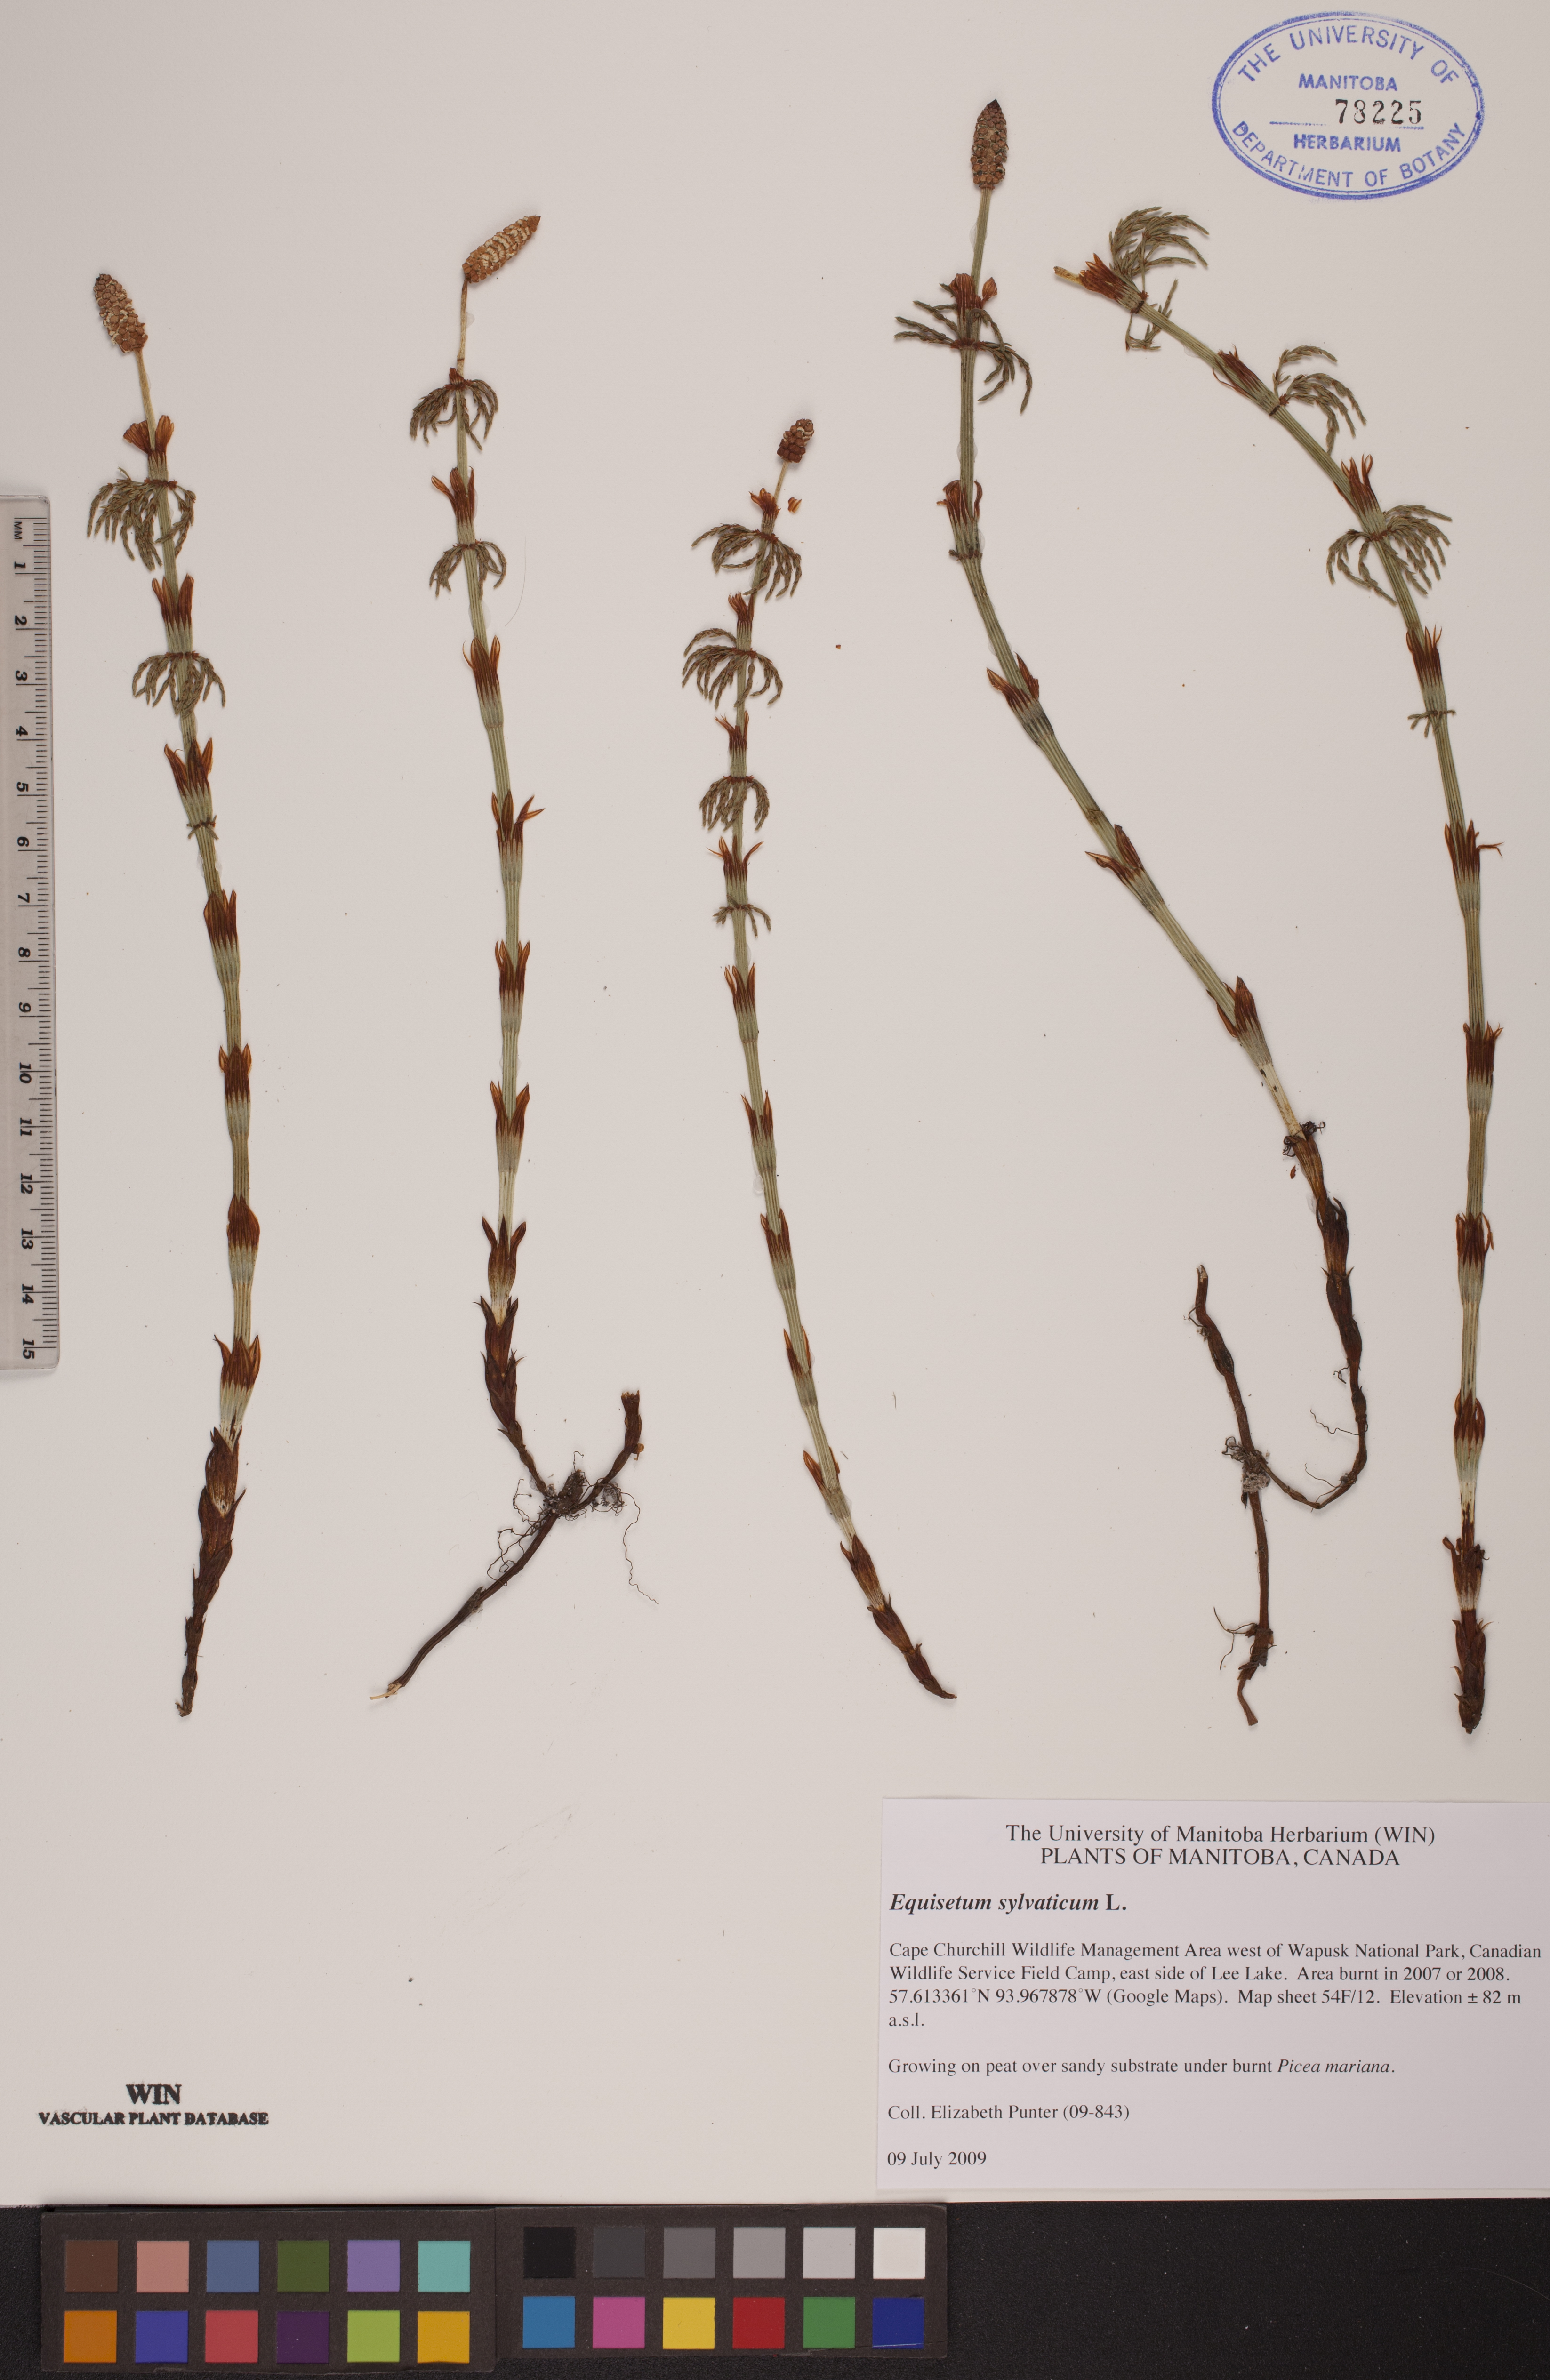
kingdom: Plantae
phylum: Tracheophyta
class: Polypodiopsida
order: Equisetales
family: Equisetaceae
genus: Equisetum
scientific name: Equisetum sylvaticum
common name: Wood horsetail
